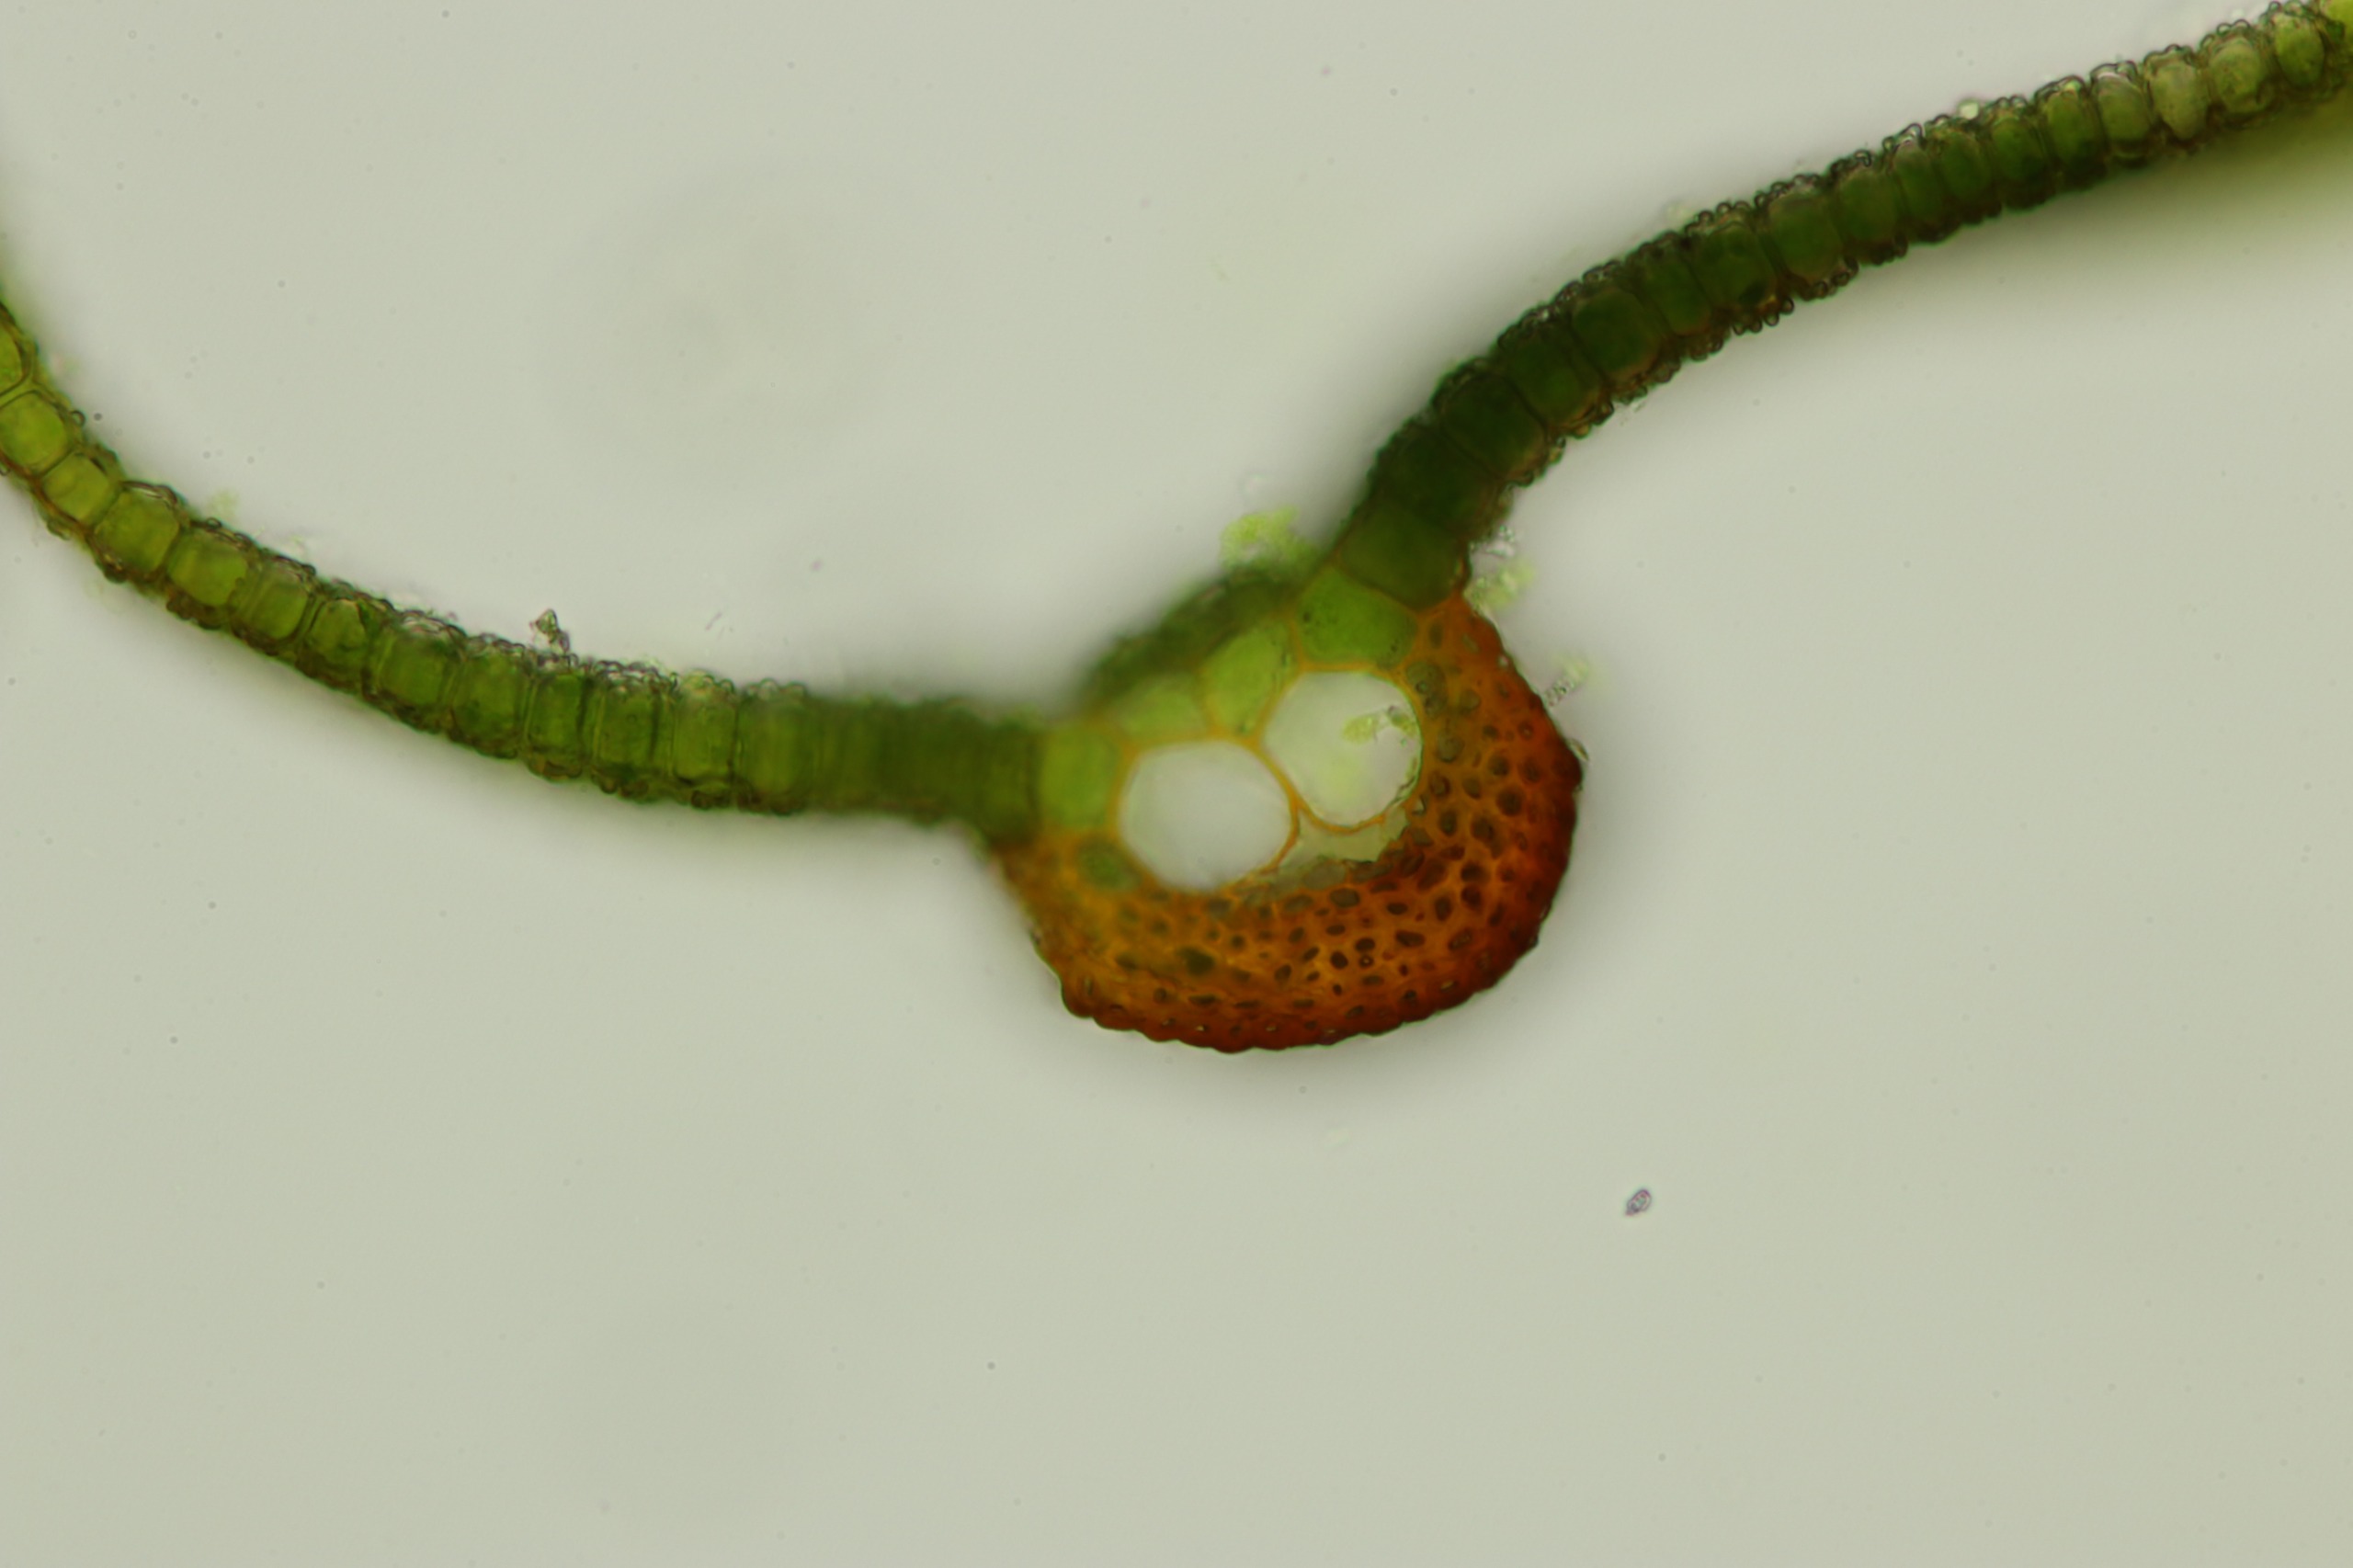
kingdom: Plantae
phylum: Bryophyta
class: Bryopsida
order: Pottiales
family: Pottiaceae
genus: Syntrichia
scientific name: Syntrichia laevipila
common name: Træ-hårstjerne
